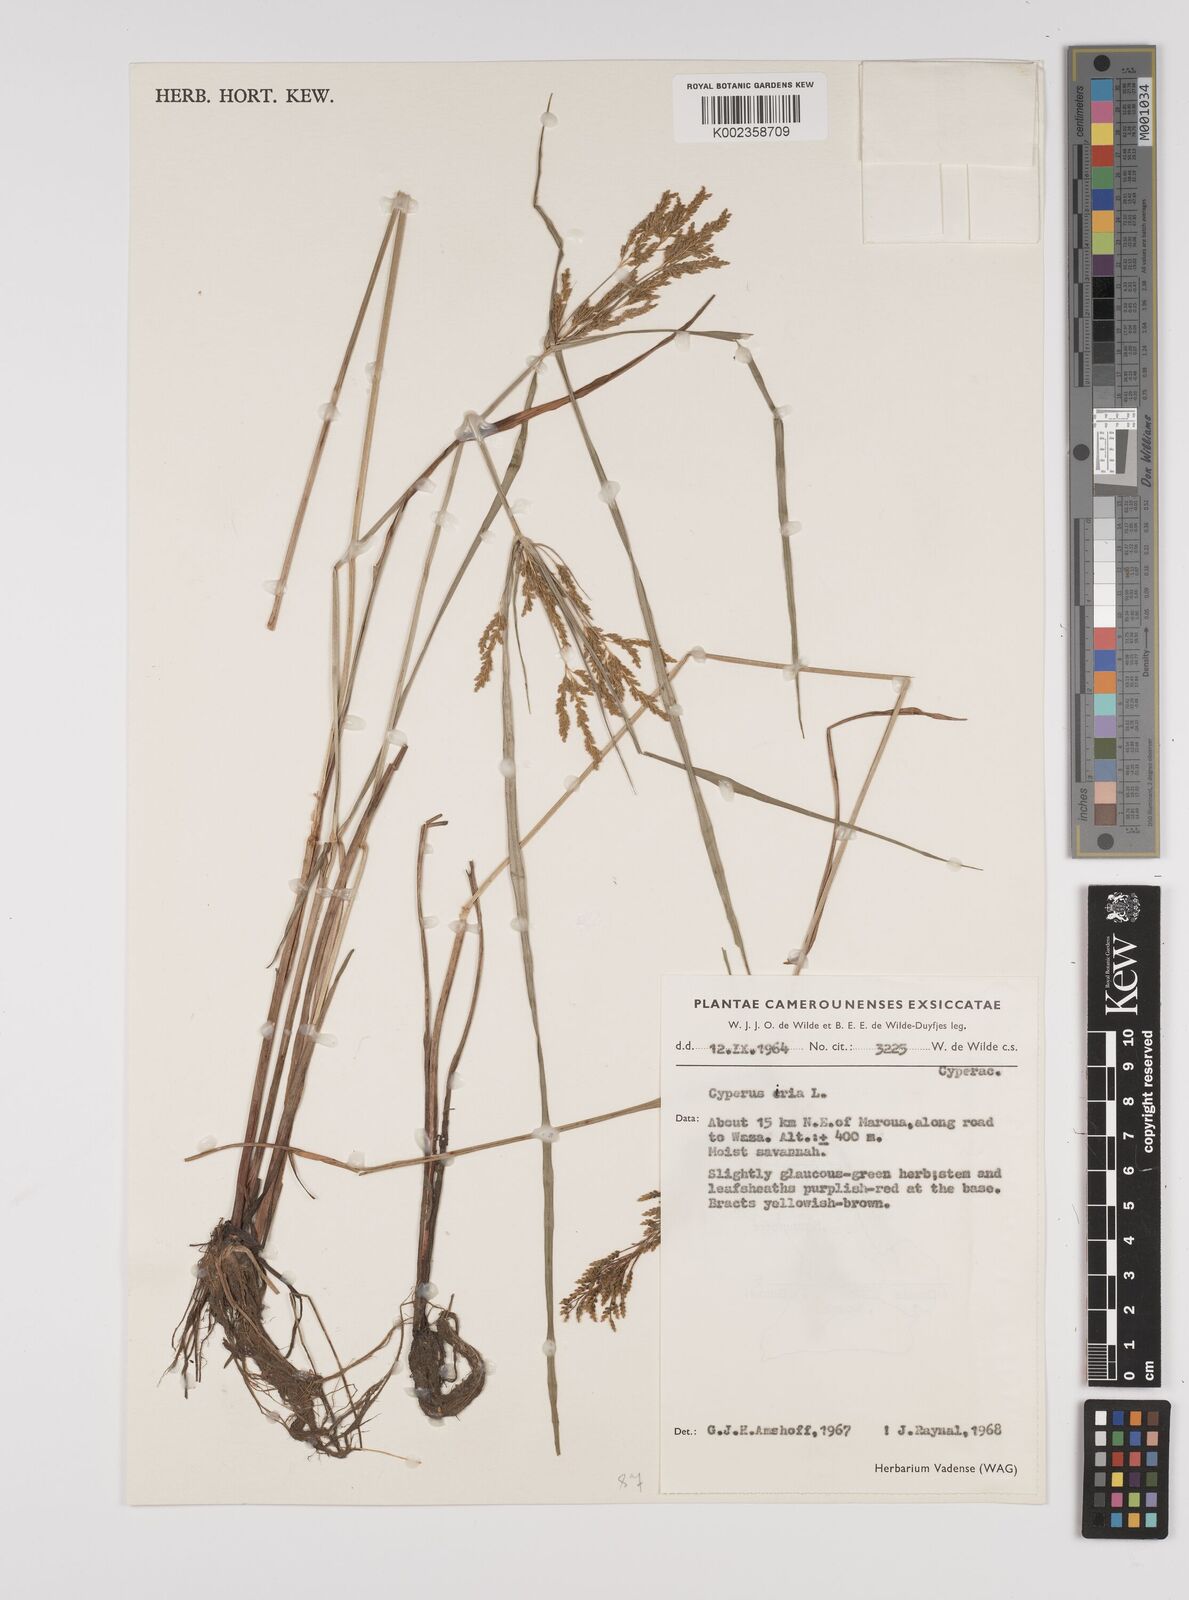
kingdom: Plantae
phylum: Tracheophyta
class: Liliopsida
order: Poales
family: Cyperaceae
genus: Cyperus
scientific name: Cyperus iria
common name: Ricefield flatsedge
